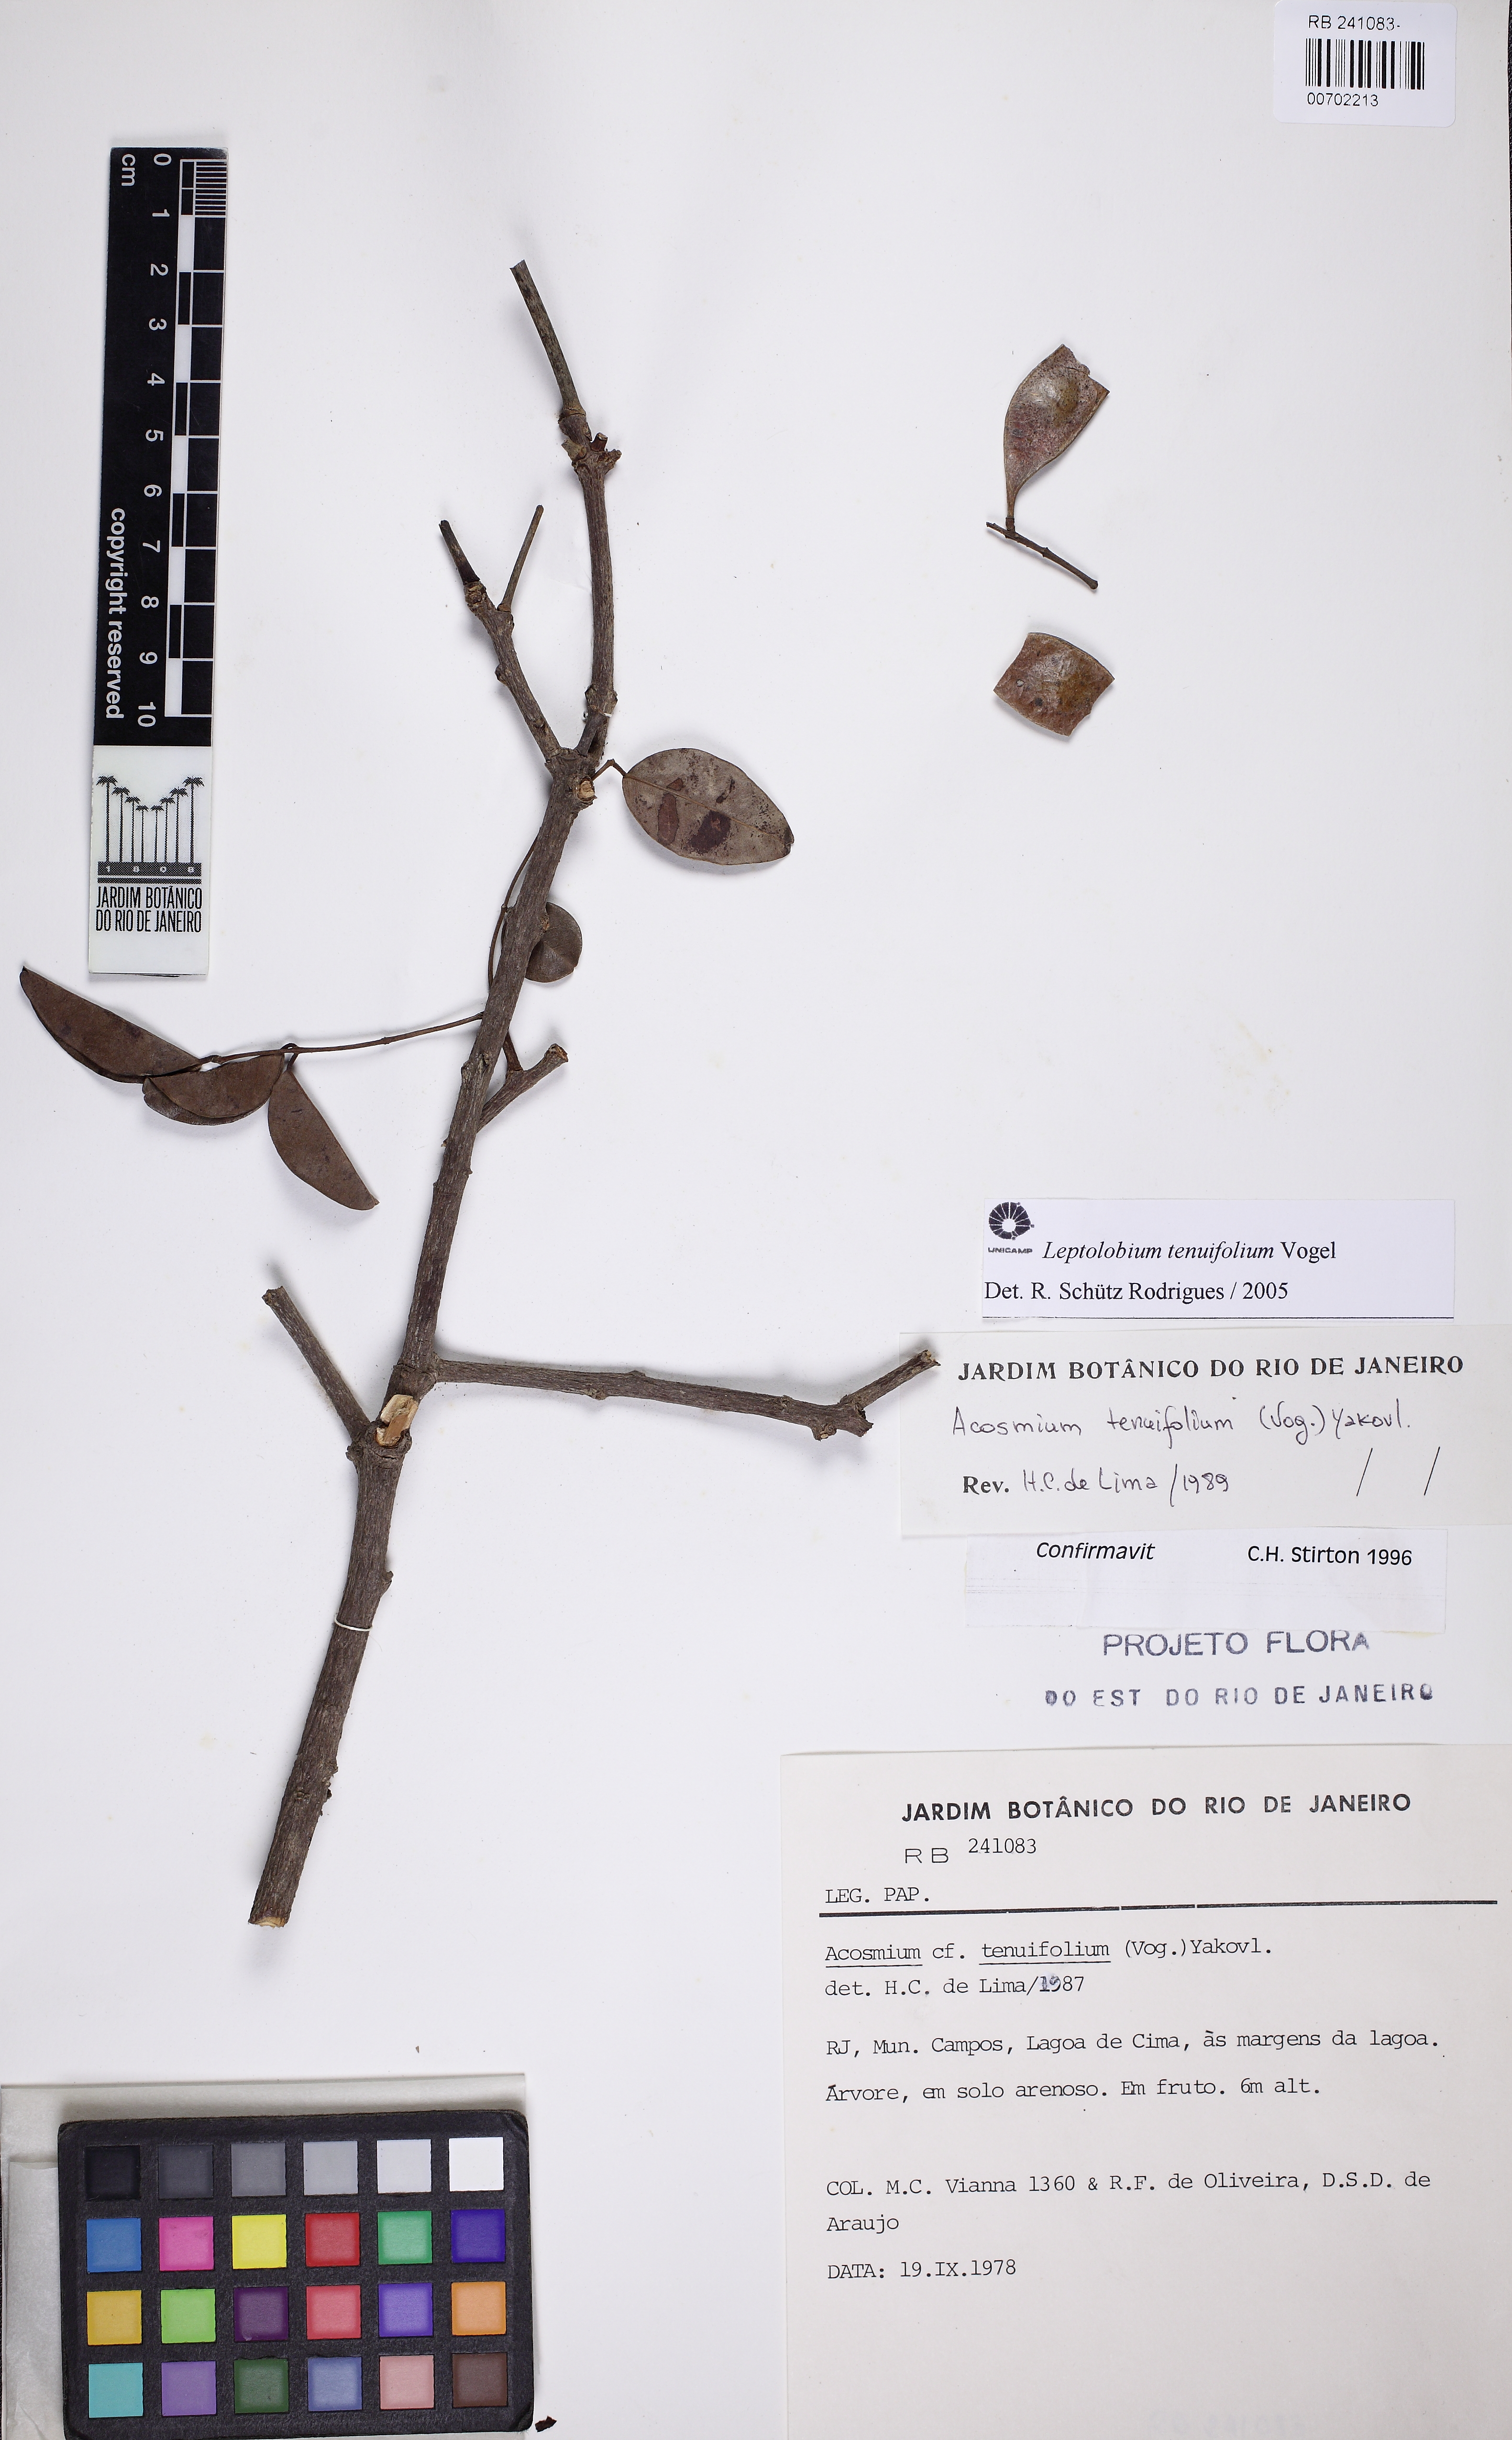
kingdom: Plantae
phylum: Tracheophyta
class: Magnoliopsida
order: Fabales
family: Fabaceae
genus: Leptolobium
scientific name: Leptolobium tenuifolium
